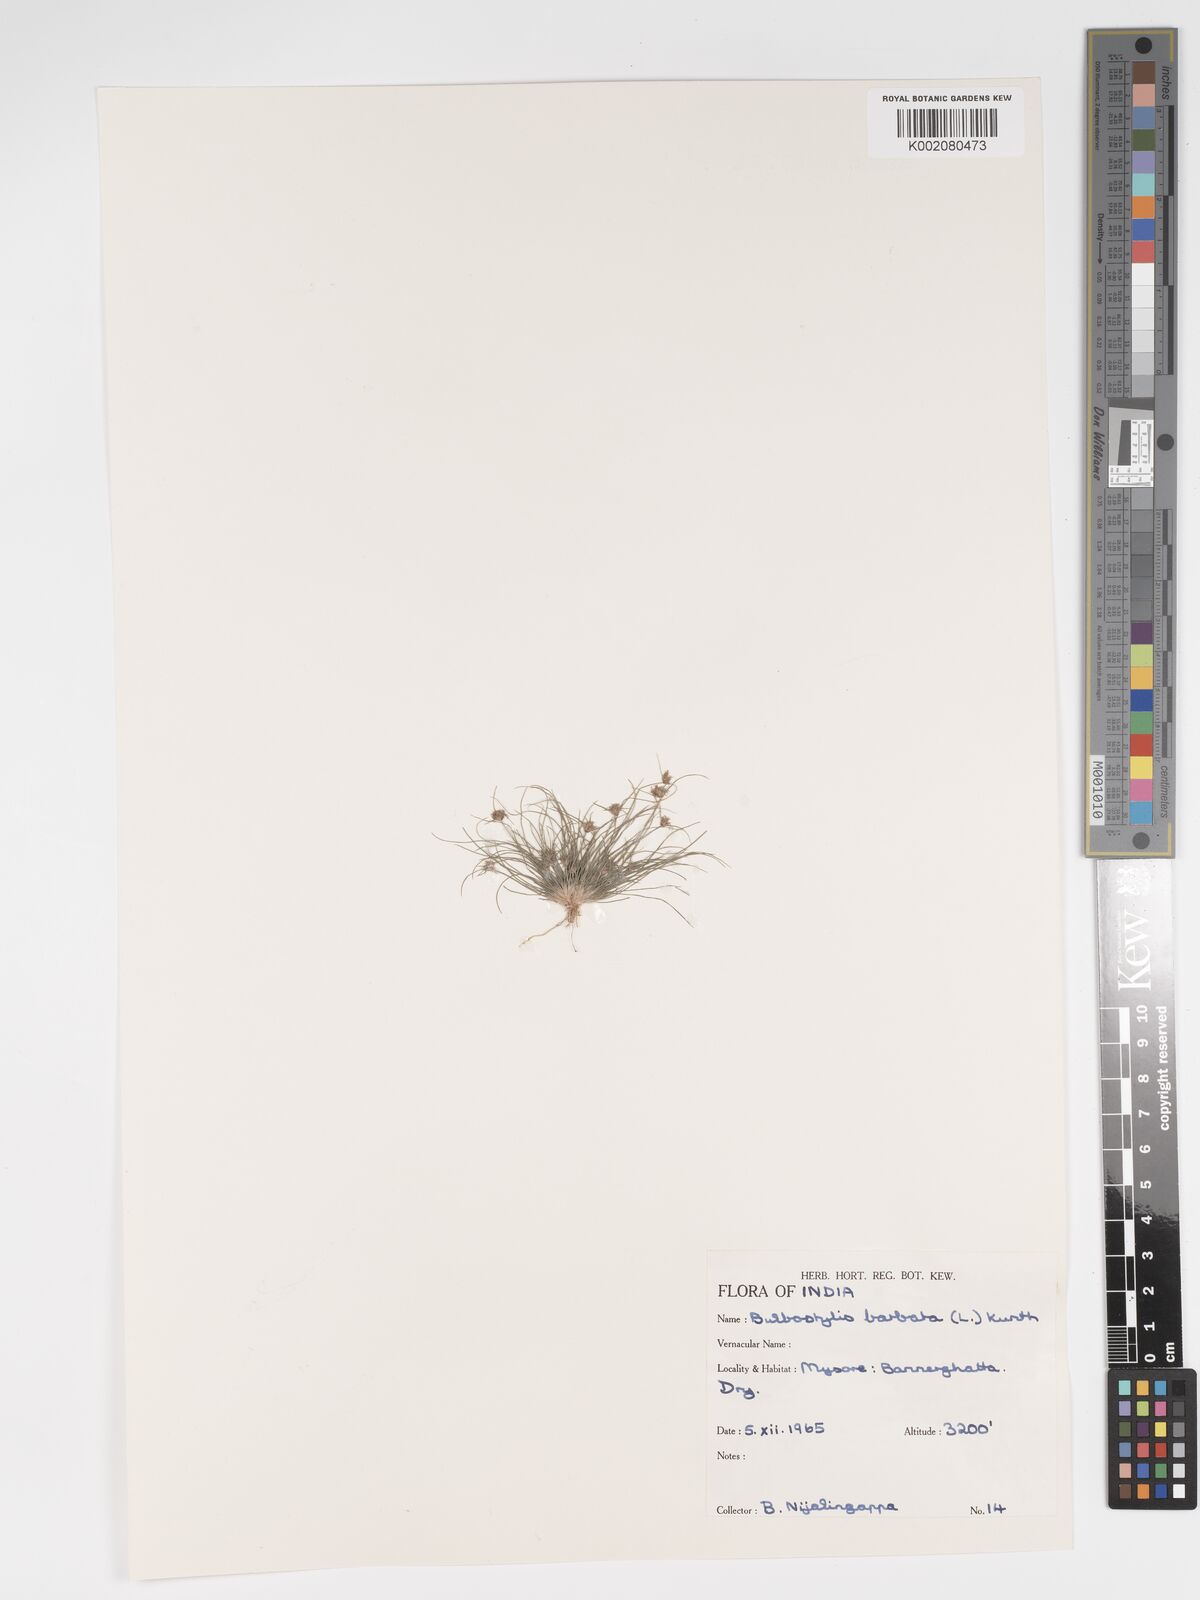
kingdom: Plantae
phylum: Tracheophyta
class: Liliopsida
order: Poales
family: Cyperaceae
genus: Bulbostylis
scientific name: Bulbostylis barbata
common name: Watergrass
